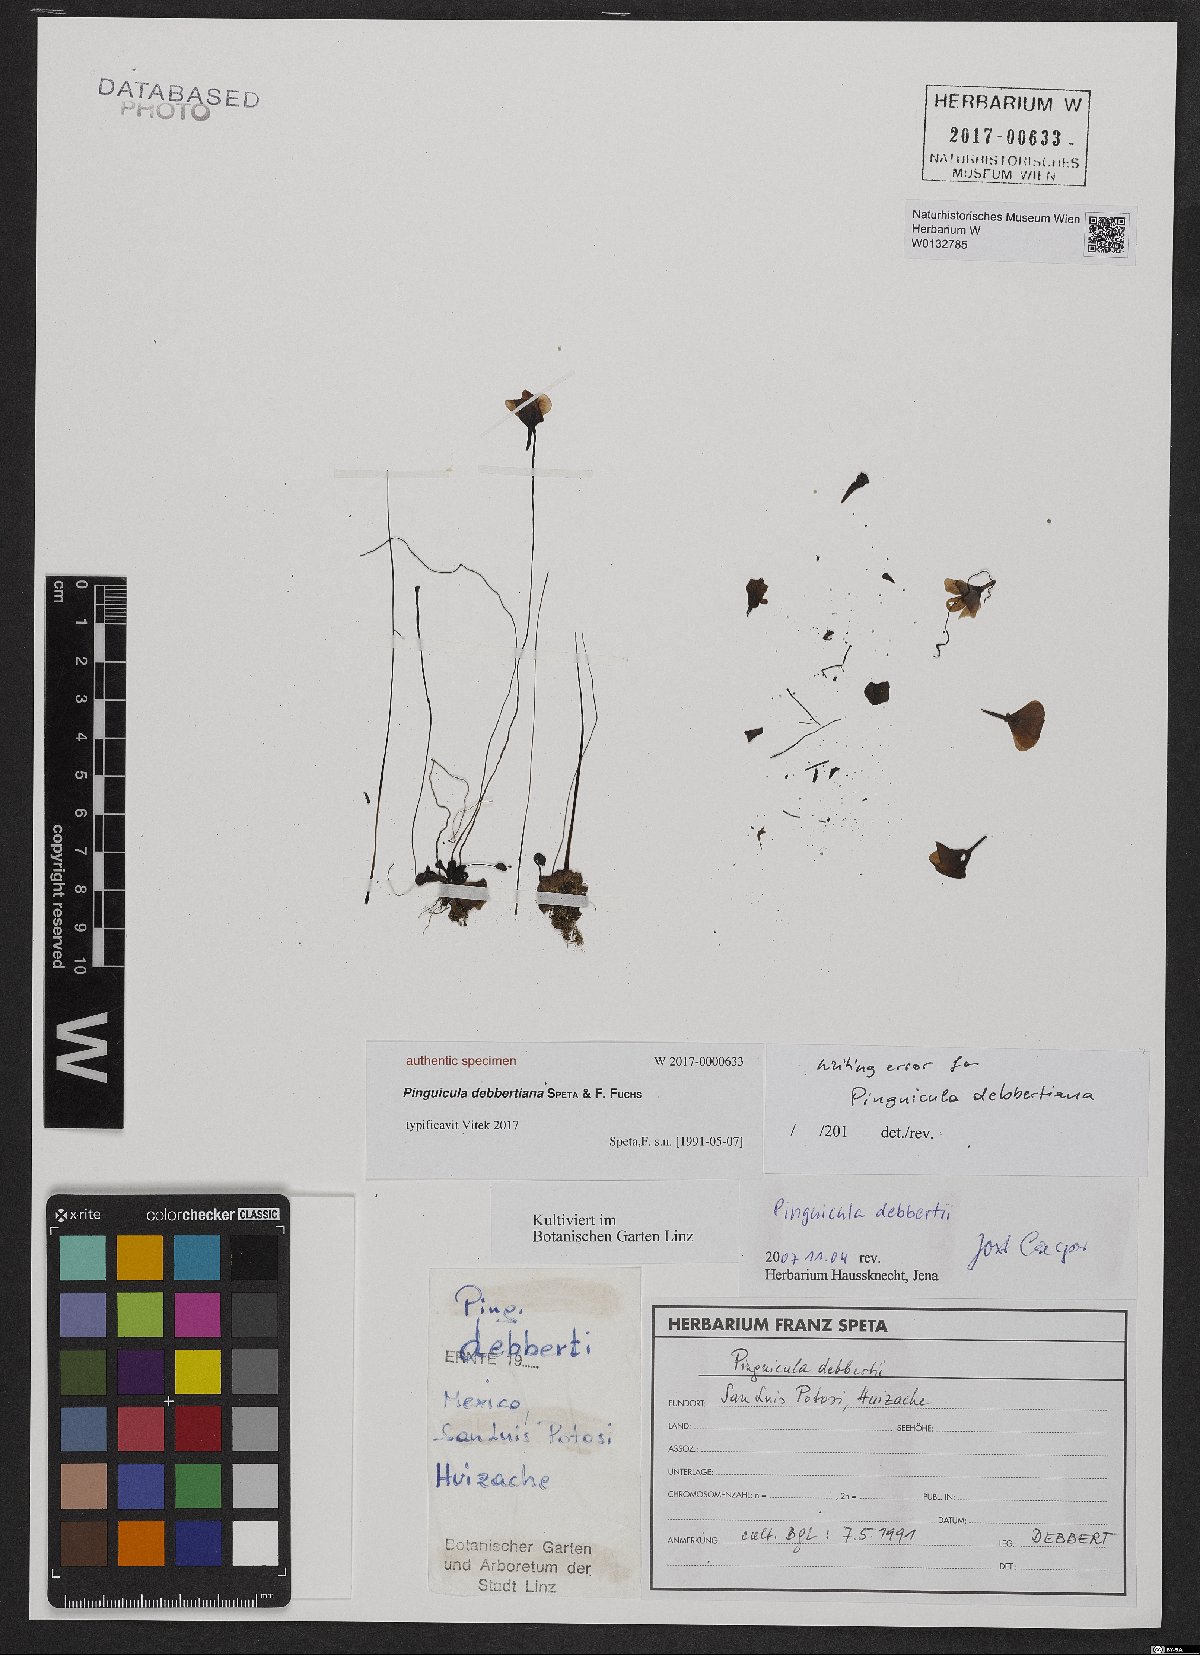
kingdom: Plantae
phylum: Tracheophyta
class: Magnoliopsida
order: Lamiales
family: Lentibulariaceae
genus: Pinguicula
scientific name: Pinguicula debbertiana
